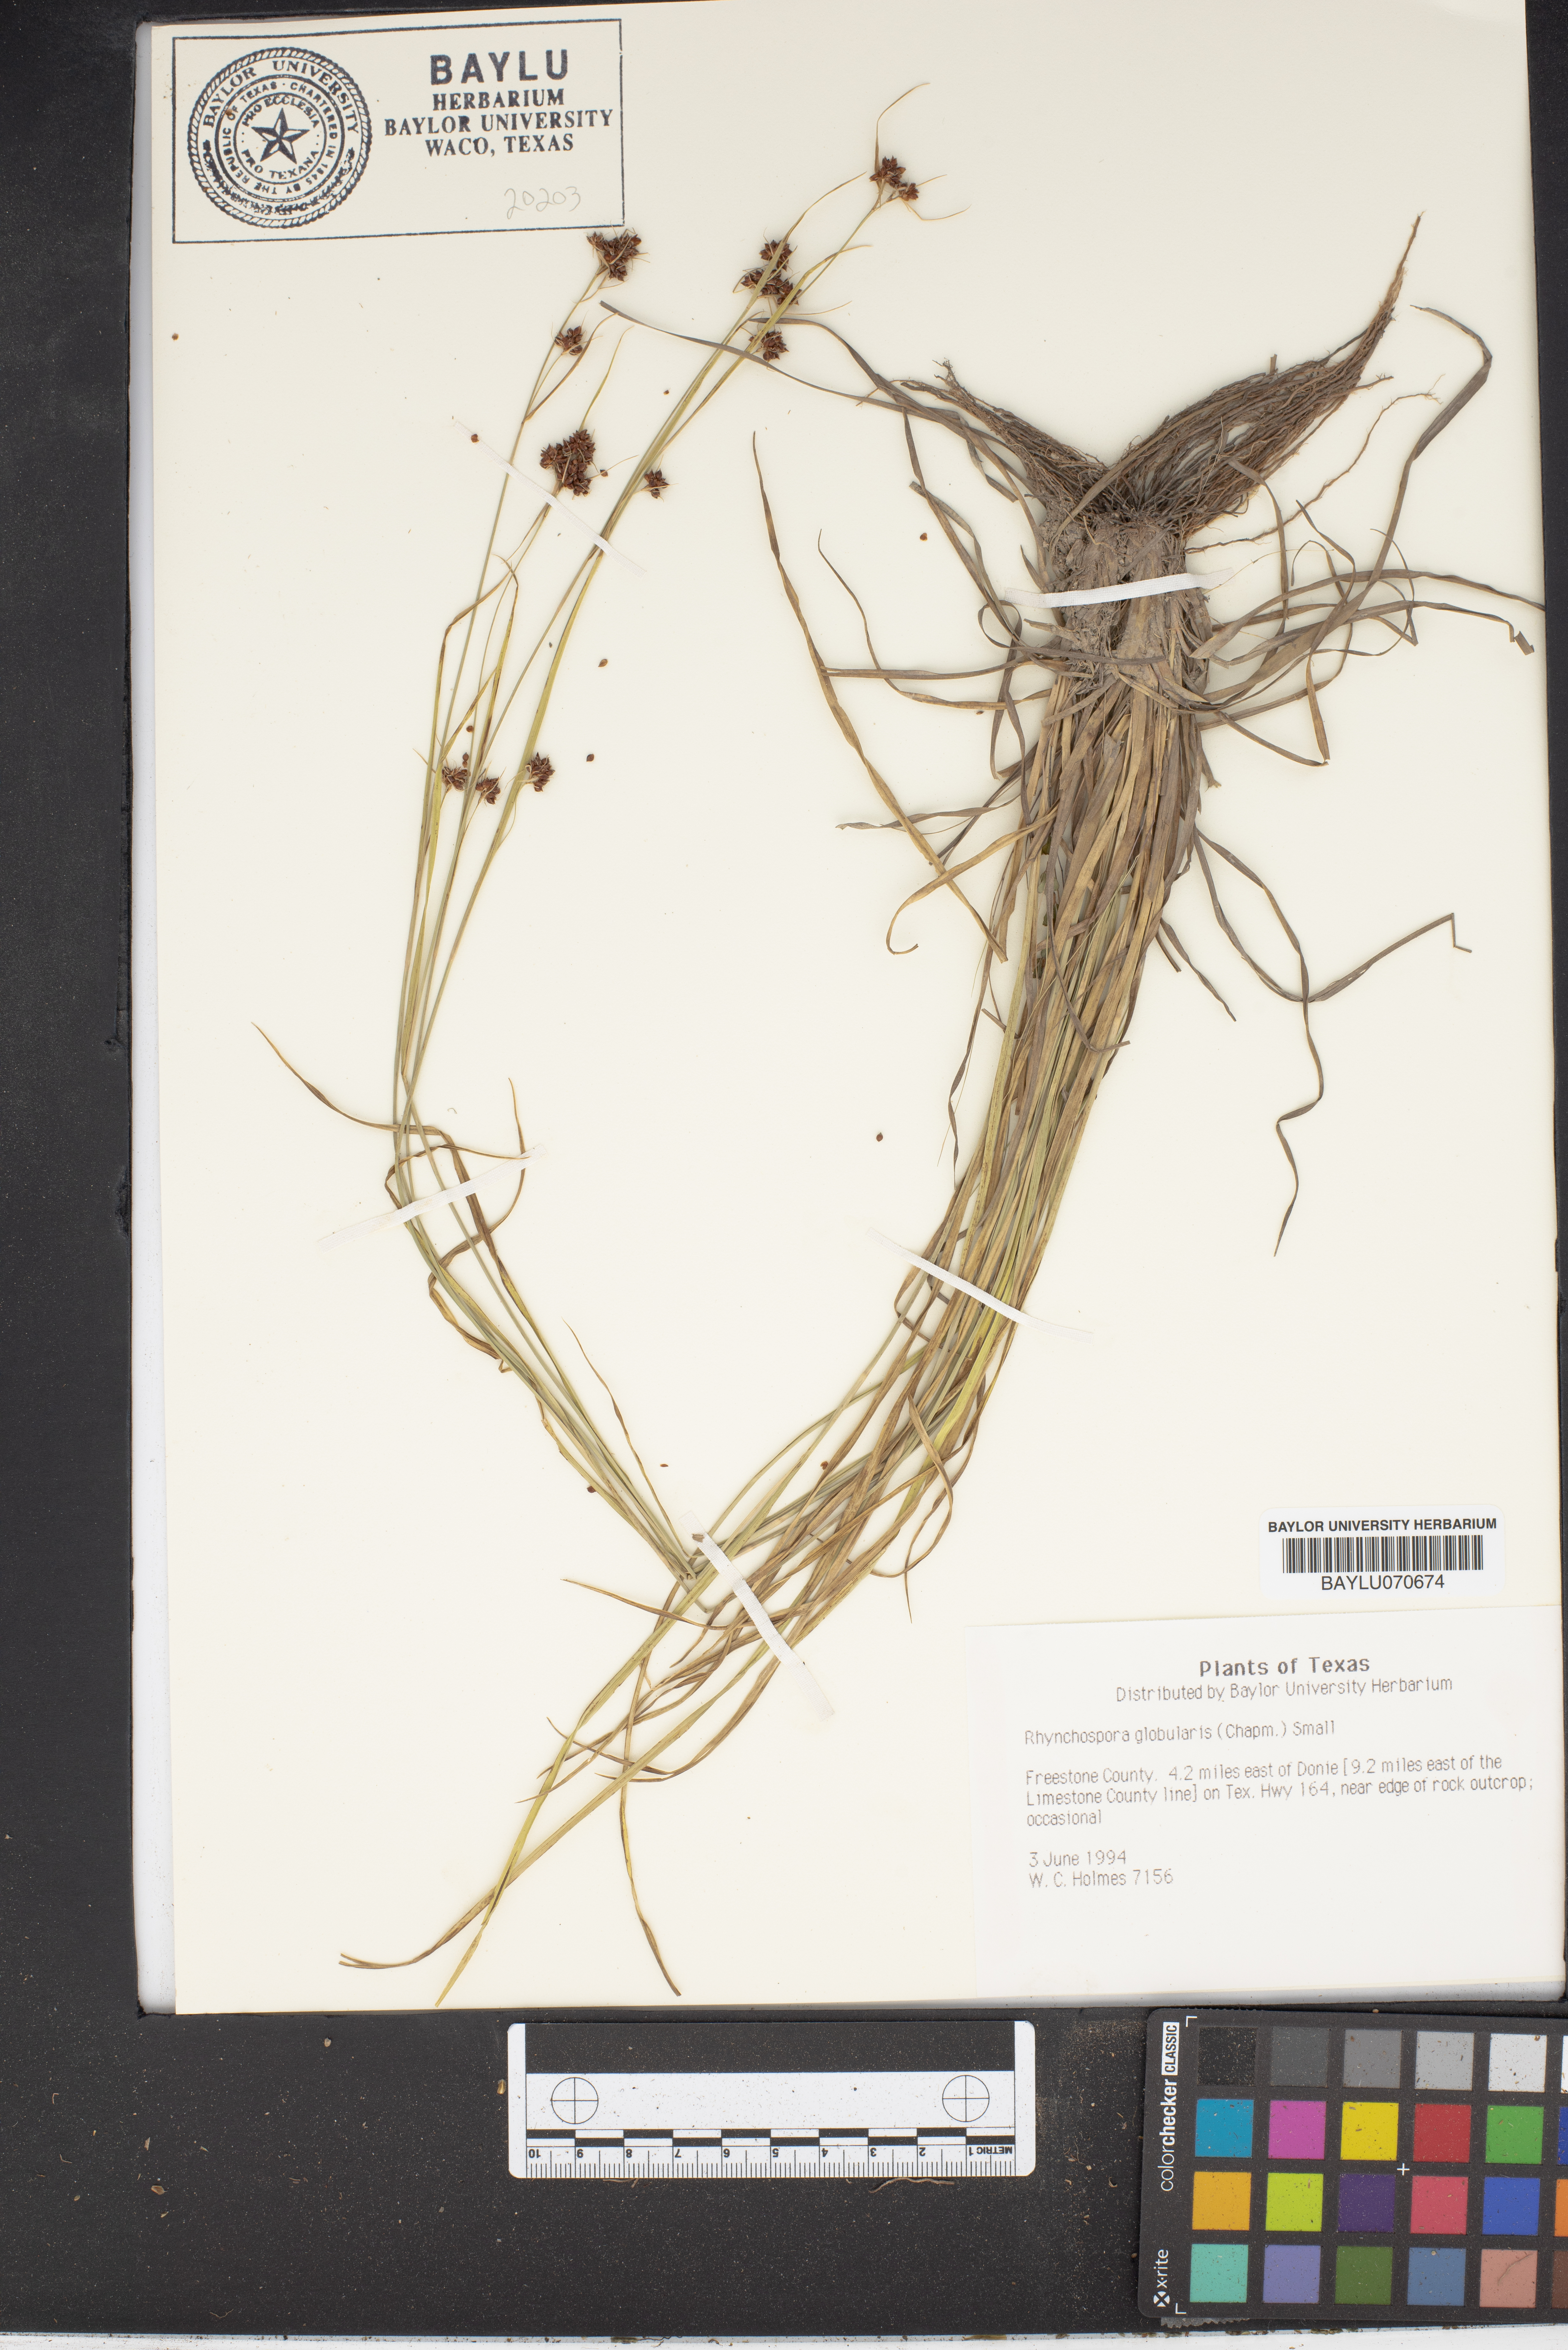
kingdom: Plantae
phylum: Tracheophyta
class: Liliopsida
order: Poales
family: Cyperaceae
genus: Rhynchospora
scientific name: Rhynchospora globularis
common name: Globe beaksedge
